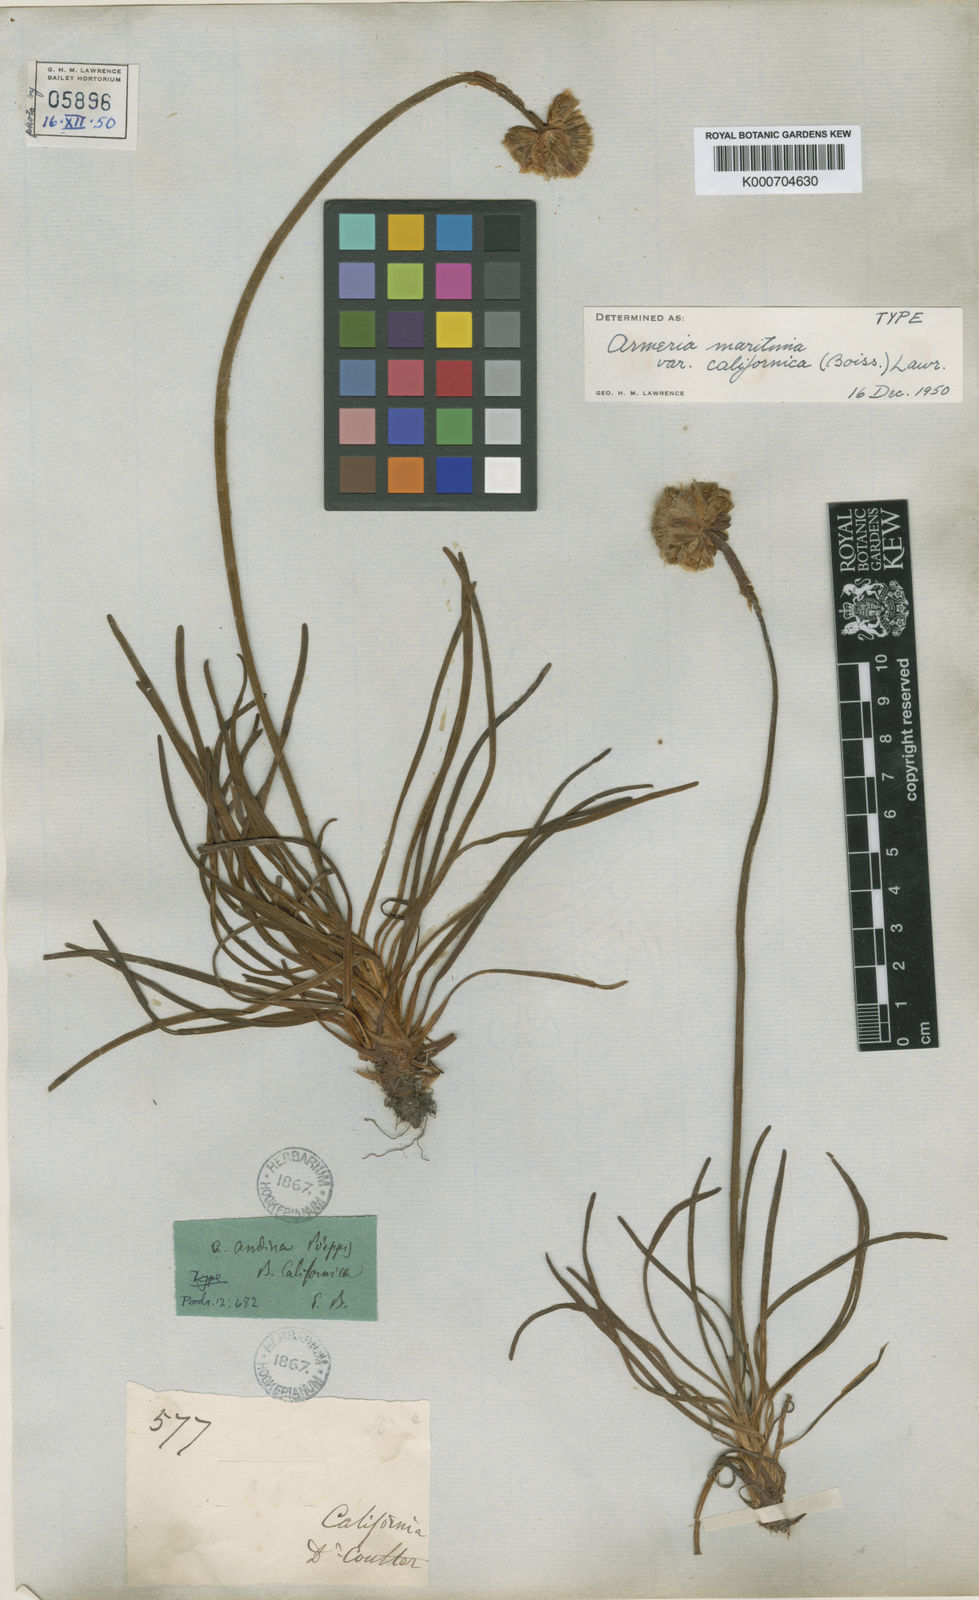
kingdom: Plantae
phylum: Tracheophyta
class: Magnoliopsida
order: Caryophyllales
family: Plumbaginaceae
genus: Armeria
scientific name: Armeria maritima
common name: Thrift
